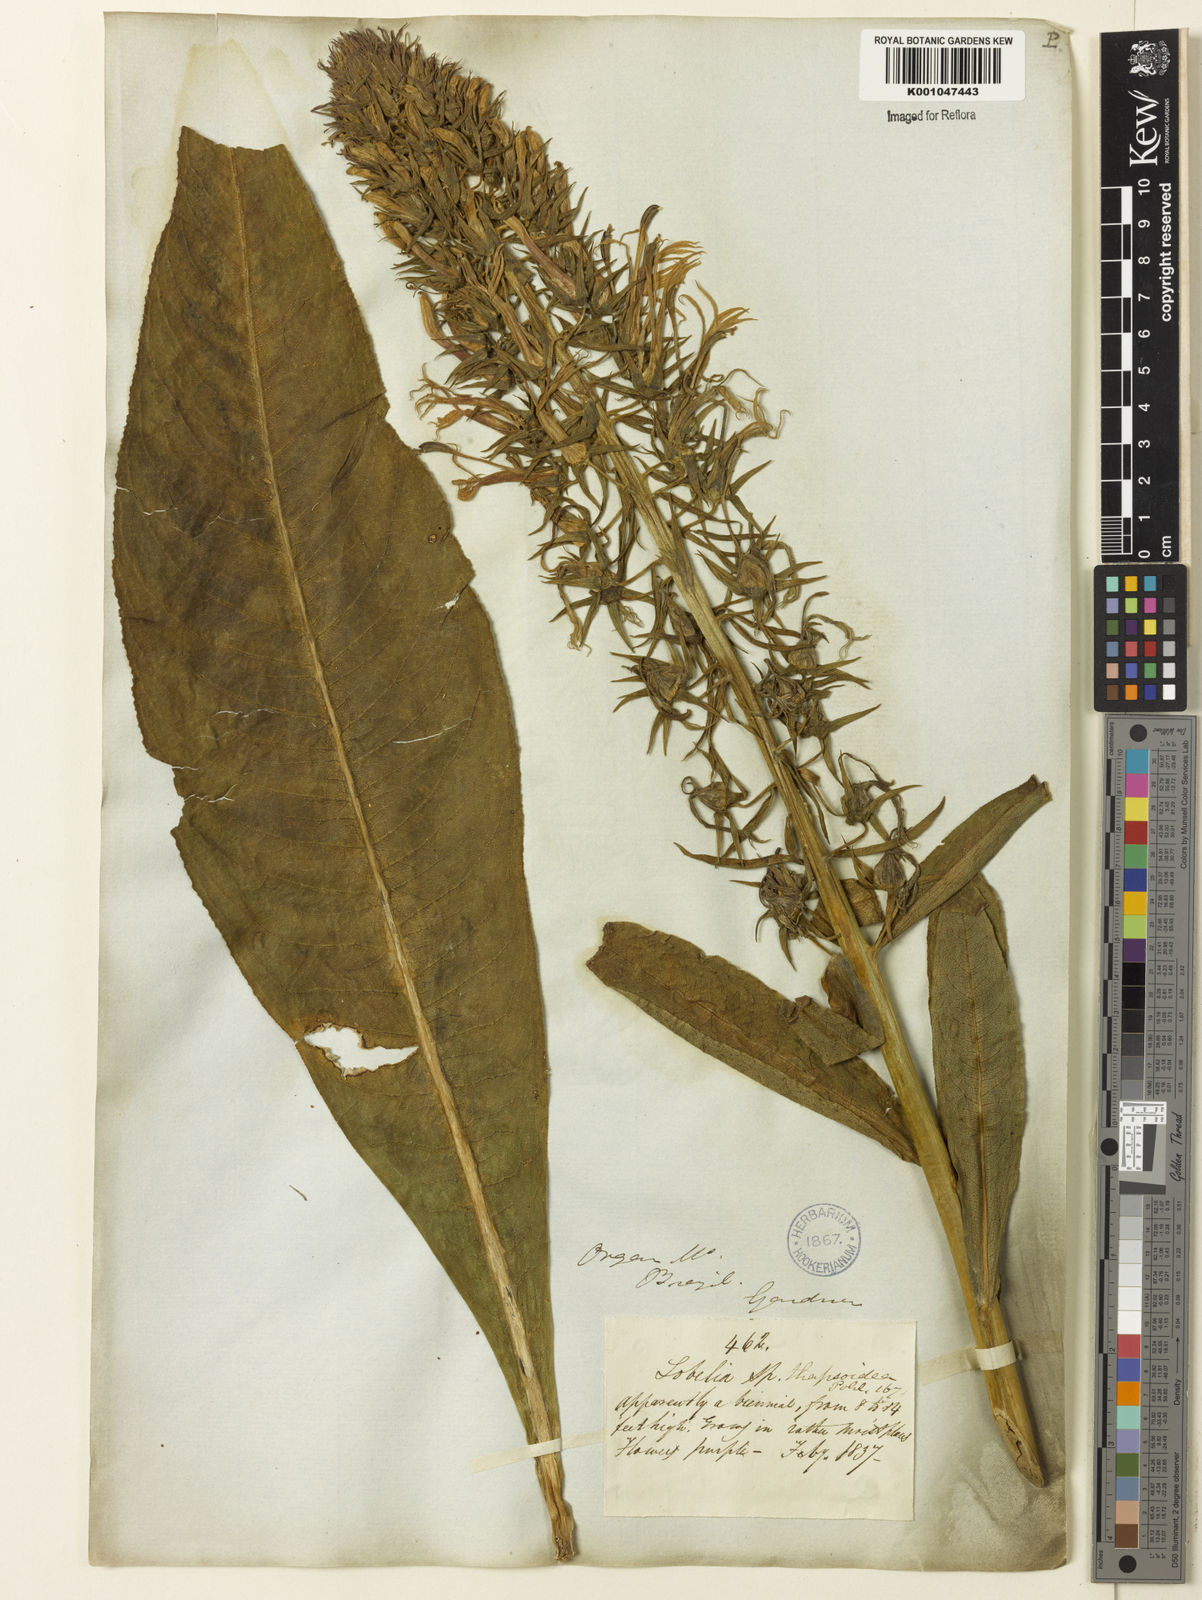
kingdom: Plantae
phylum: Tracheophyta
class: Magnoliopsida
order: Asterales
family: Campanulaceae
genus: Lobelia
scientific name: Lobelia
